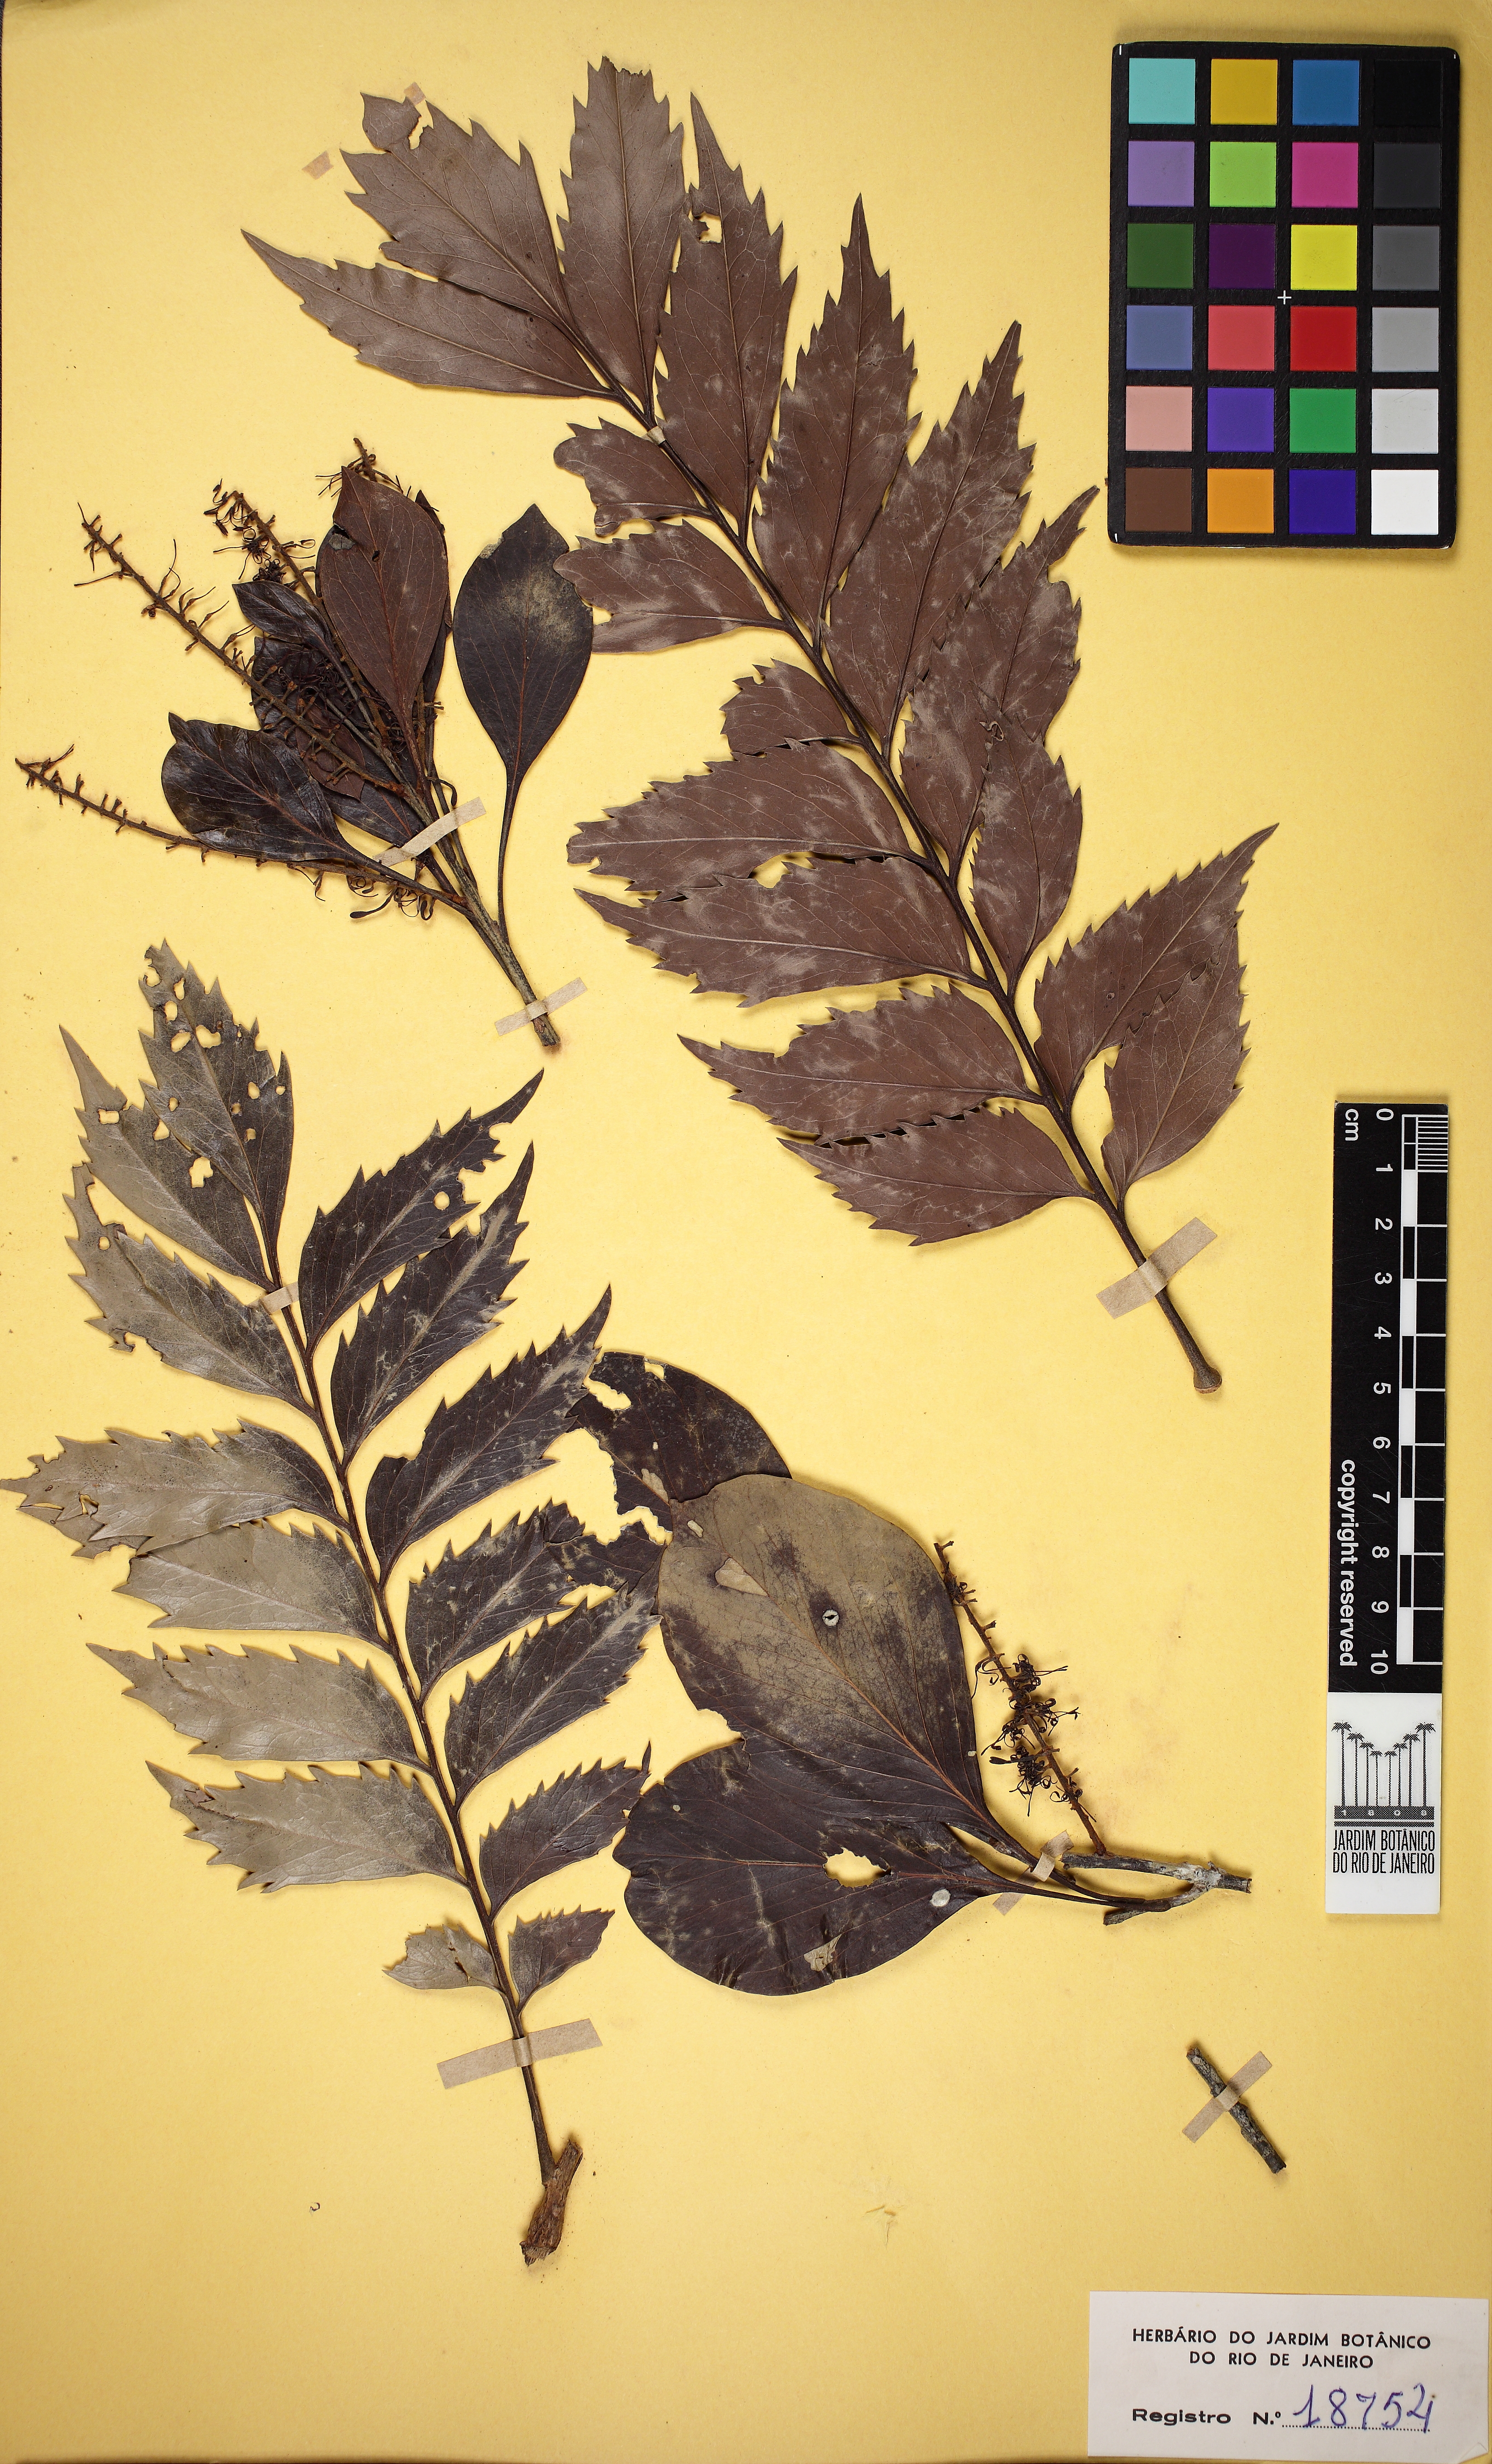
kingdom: Plantae
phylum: Tracheophyta
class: Magnoliopsida
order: Proteales
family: Proteaceae
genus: Roupala
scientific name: Roupala obtusata
